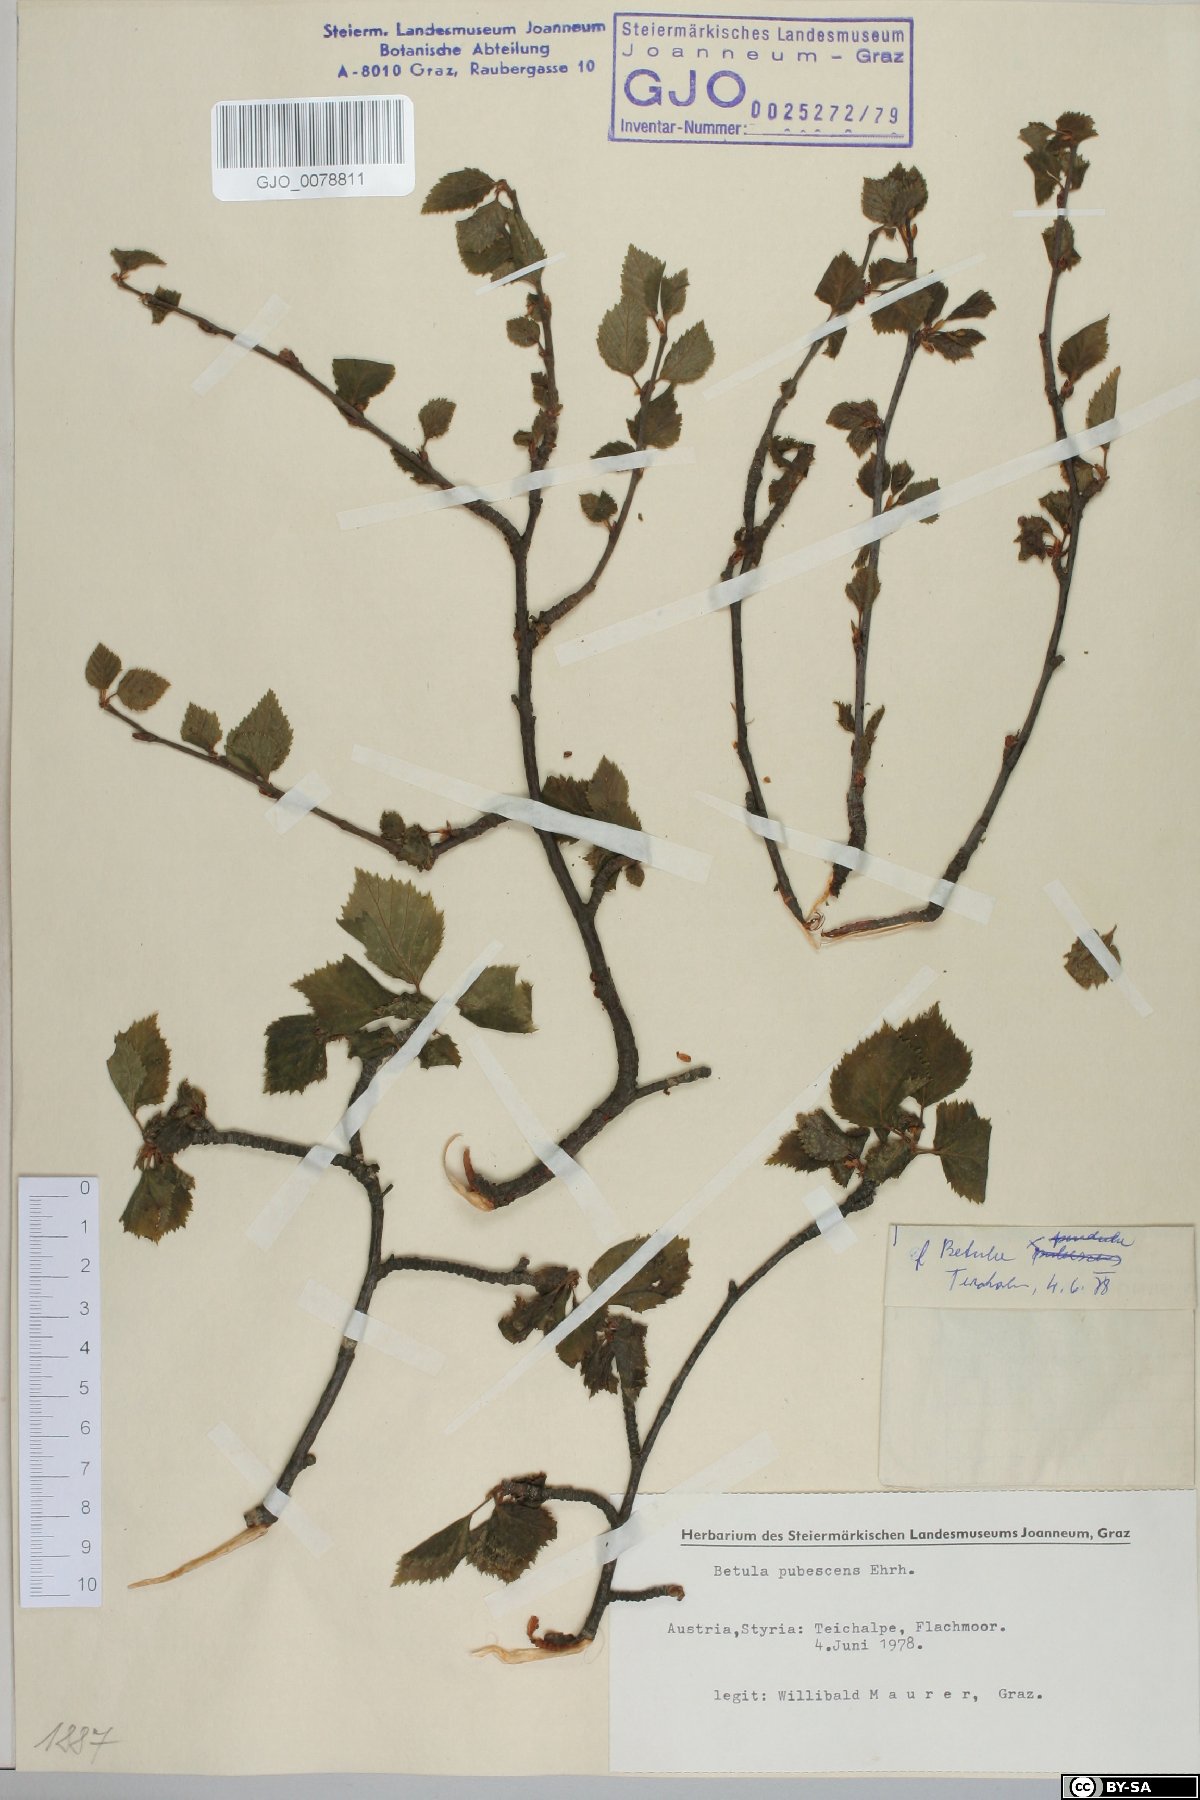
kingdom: Plantae
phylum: Tracheophyta
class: Magnoliopsida
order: Fagales
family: Betulaceae
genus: Betula
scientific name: Betula pubescens
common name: Downy birch
